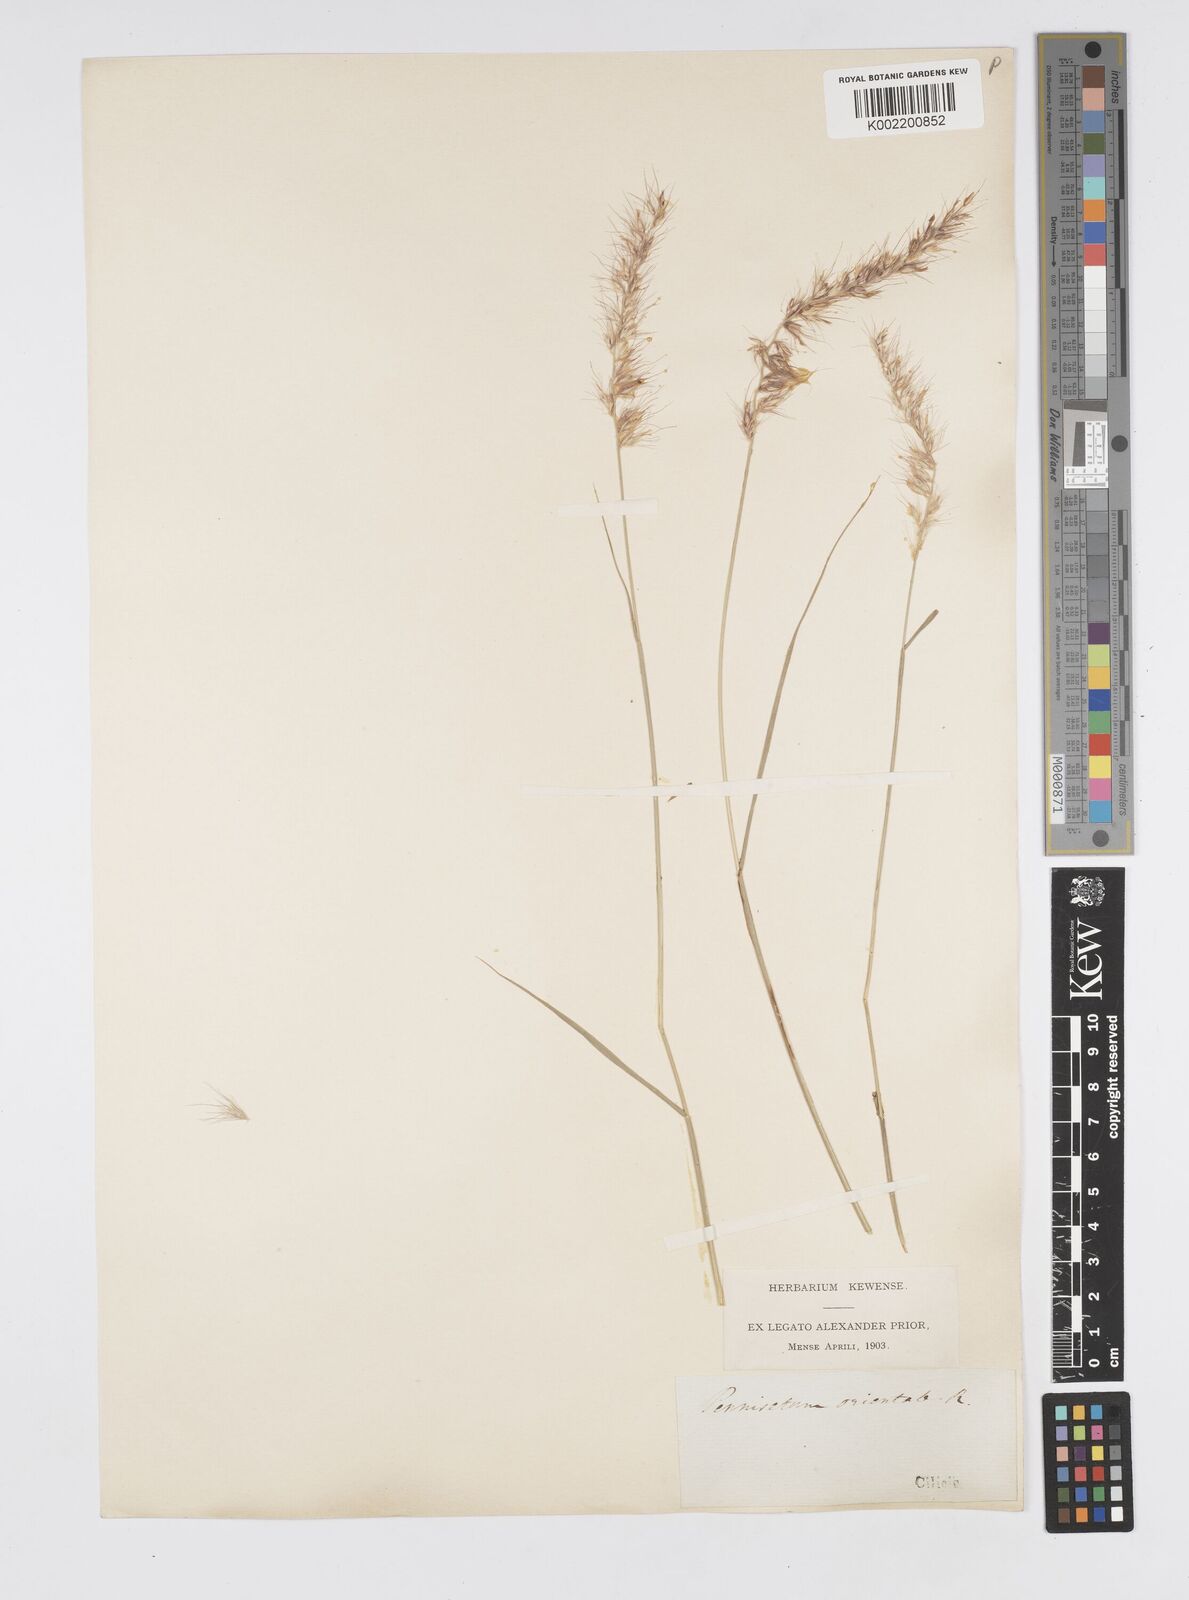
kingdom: Plantae
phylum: Tracheophyta
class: Liliopsida
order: Poales
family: Poaceae
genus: Cenchrus
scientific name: Cenchrus orientalis
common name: Oriental fountain grass
